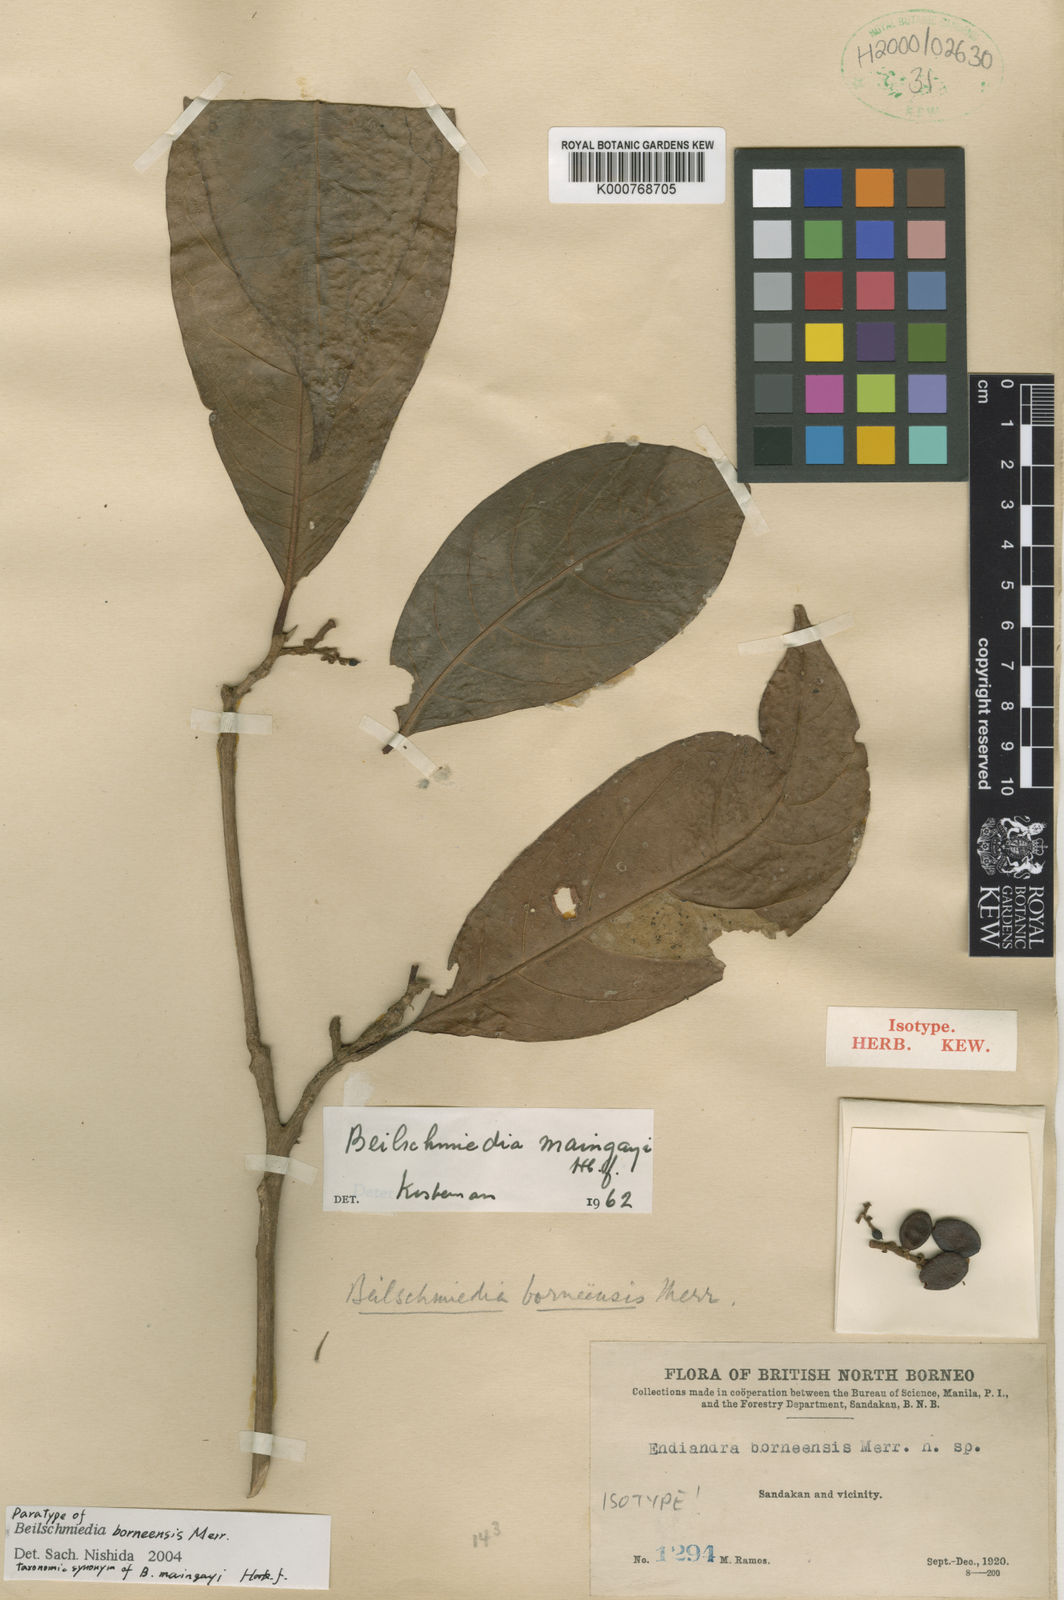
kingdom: Plantae
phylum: Tracheophyta
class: Magnoliopsida
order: Laurales
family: Lauraceae
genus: Beilschmiedia
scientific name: Beilschmiedia maingayi
